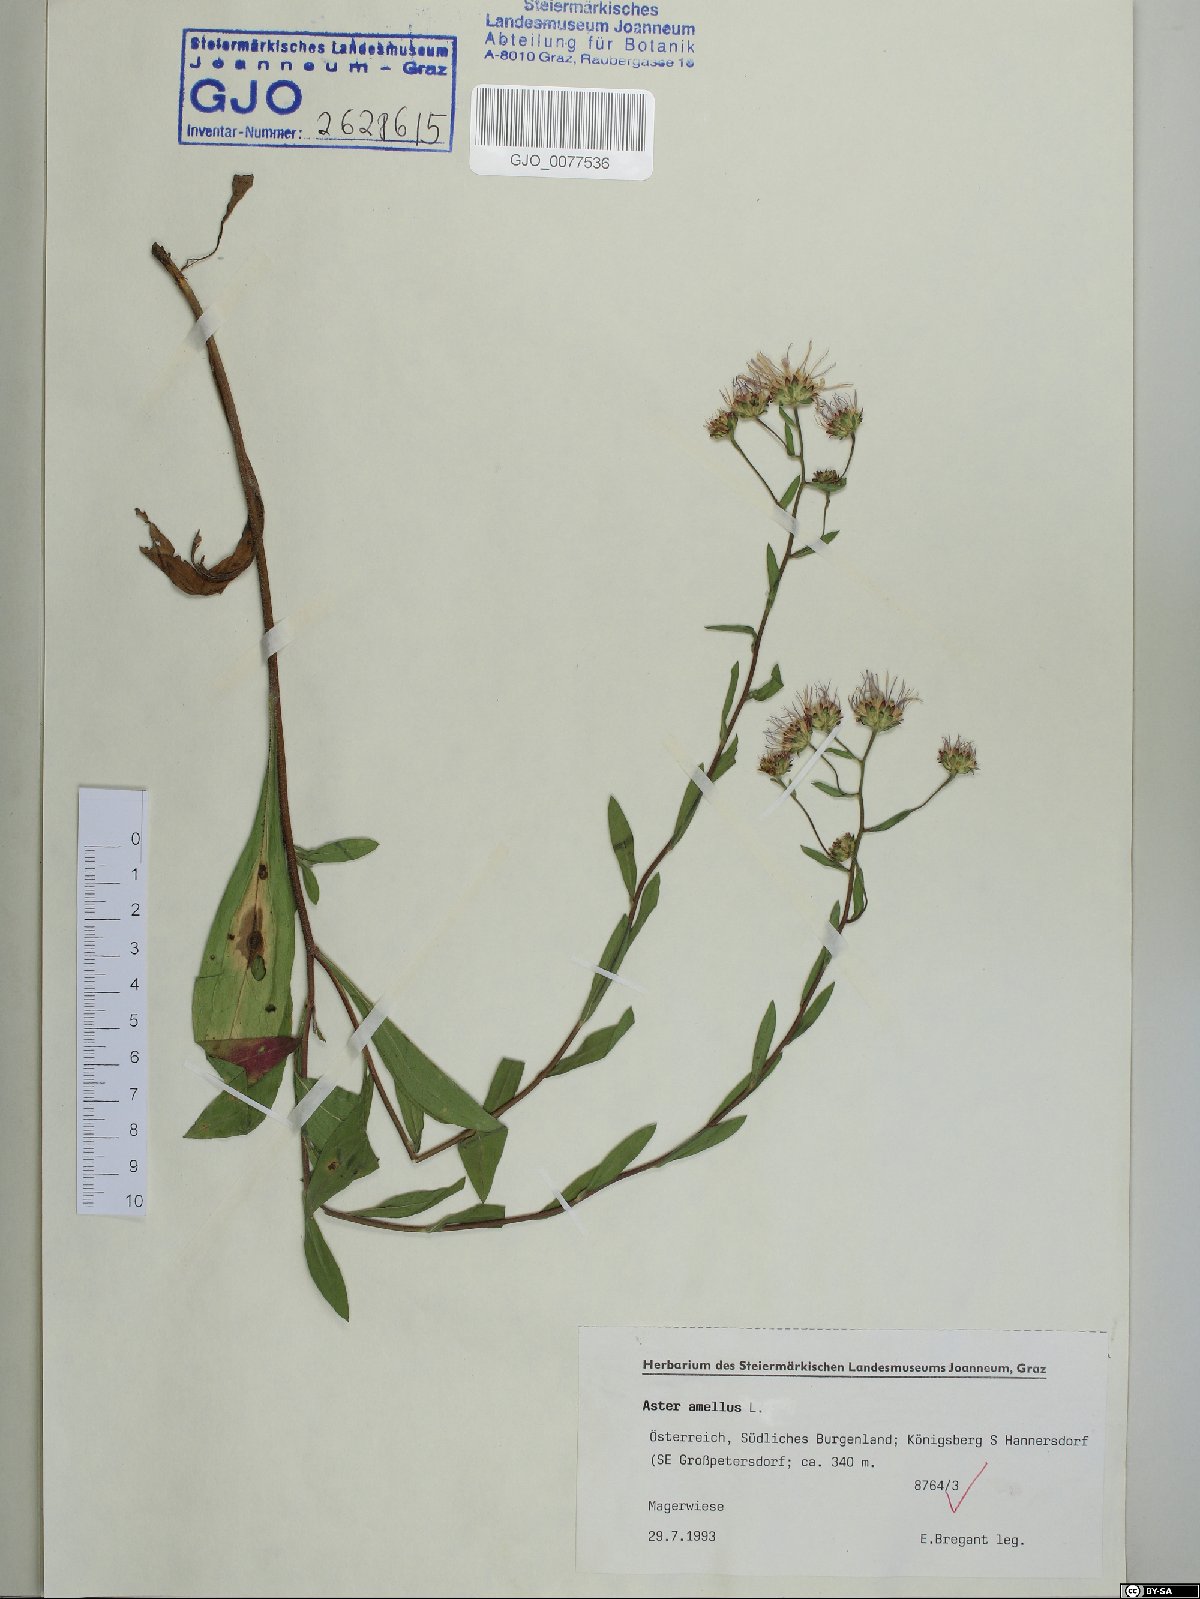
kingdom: Plantae
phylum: Tracheophyta
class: Magnoliopsida
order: Asterales
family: Asteraceae
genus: Aster
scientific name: Aster amellus
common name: European michaelmas daisy
